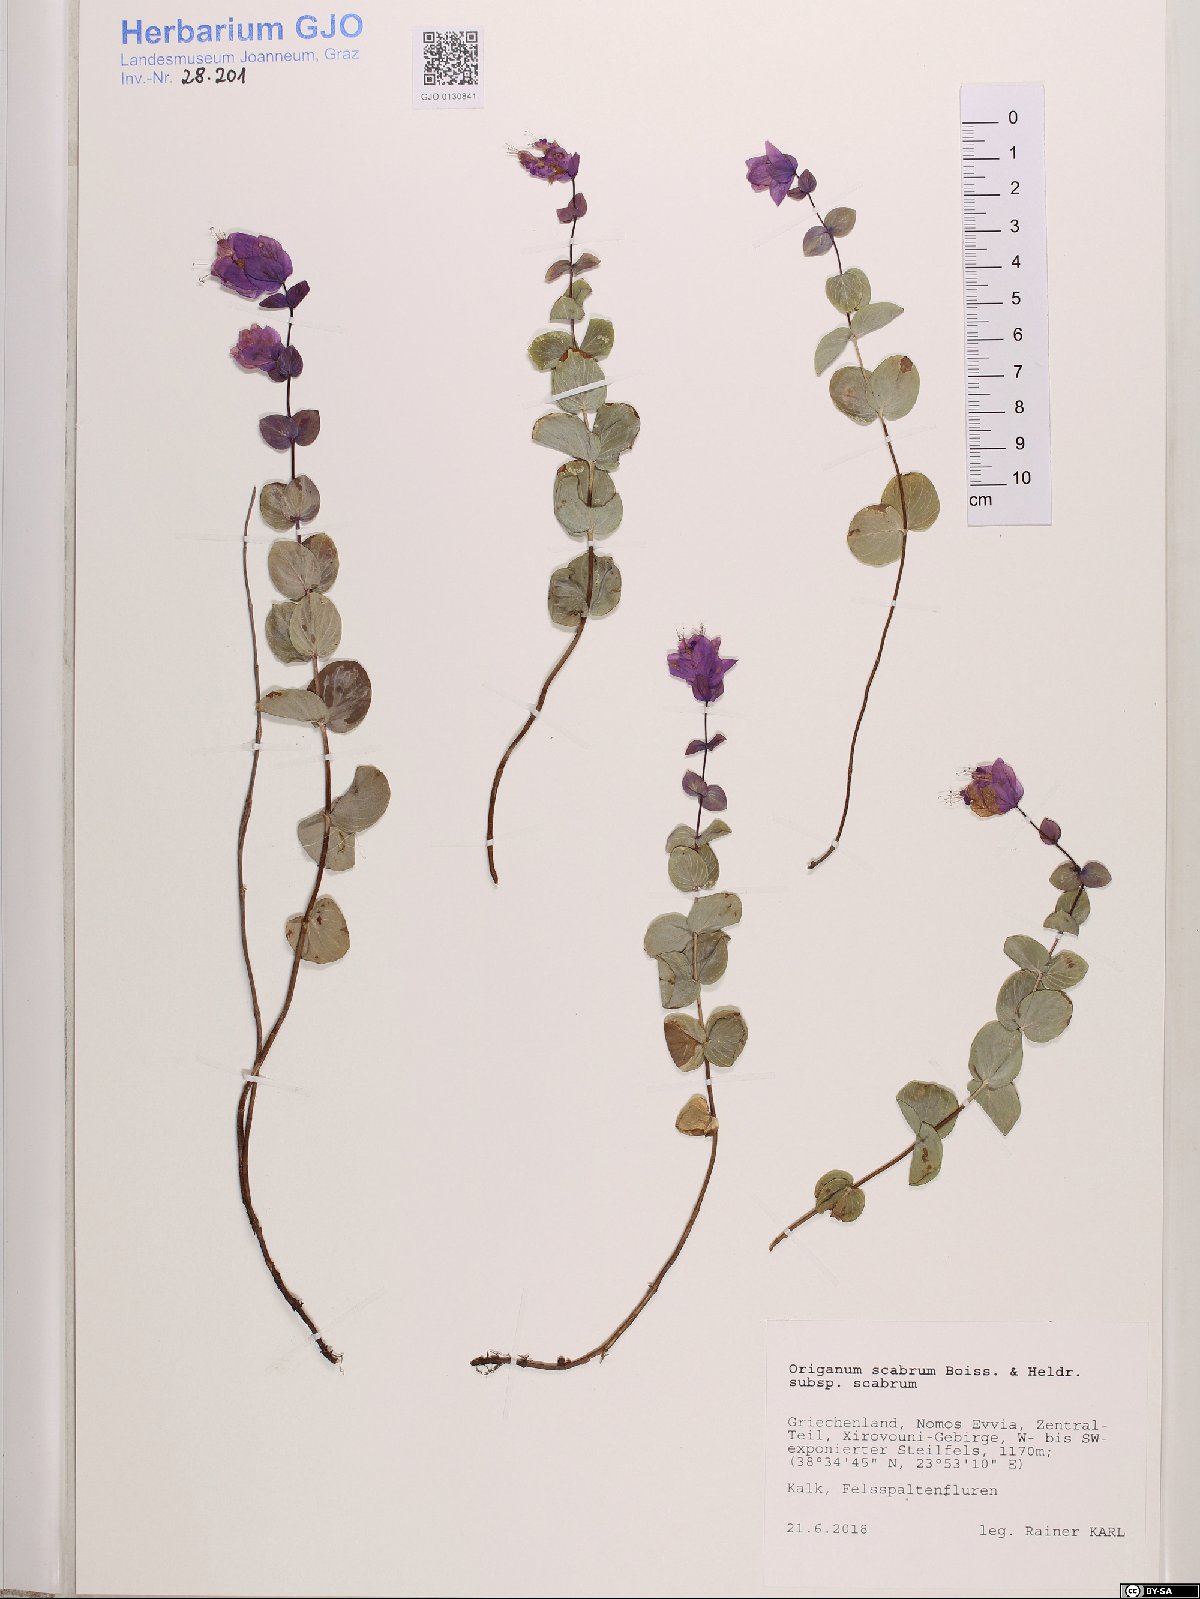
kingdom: Plantae
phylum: Tracheophyta
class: Magnoliopsida
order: Lamiales
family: Lamiaceae
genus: Origanum
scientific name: Origanum scabrum
